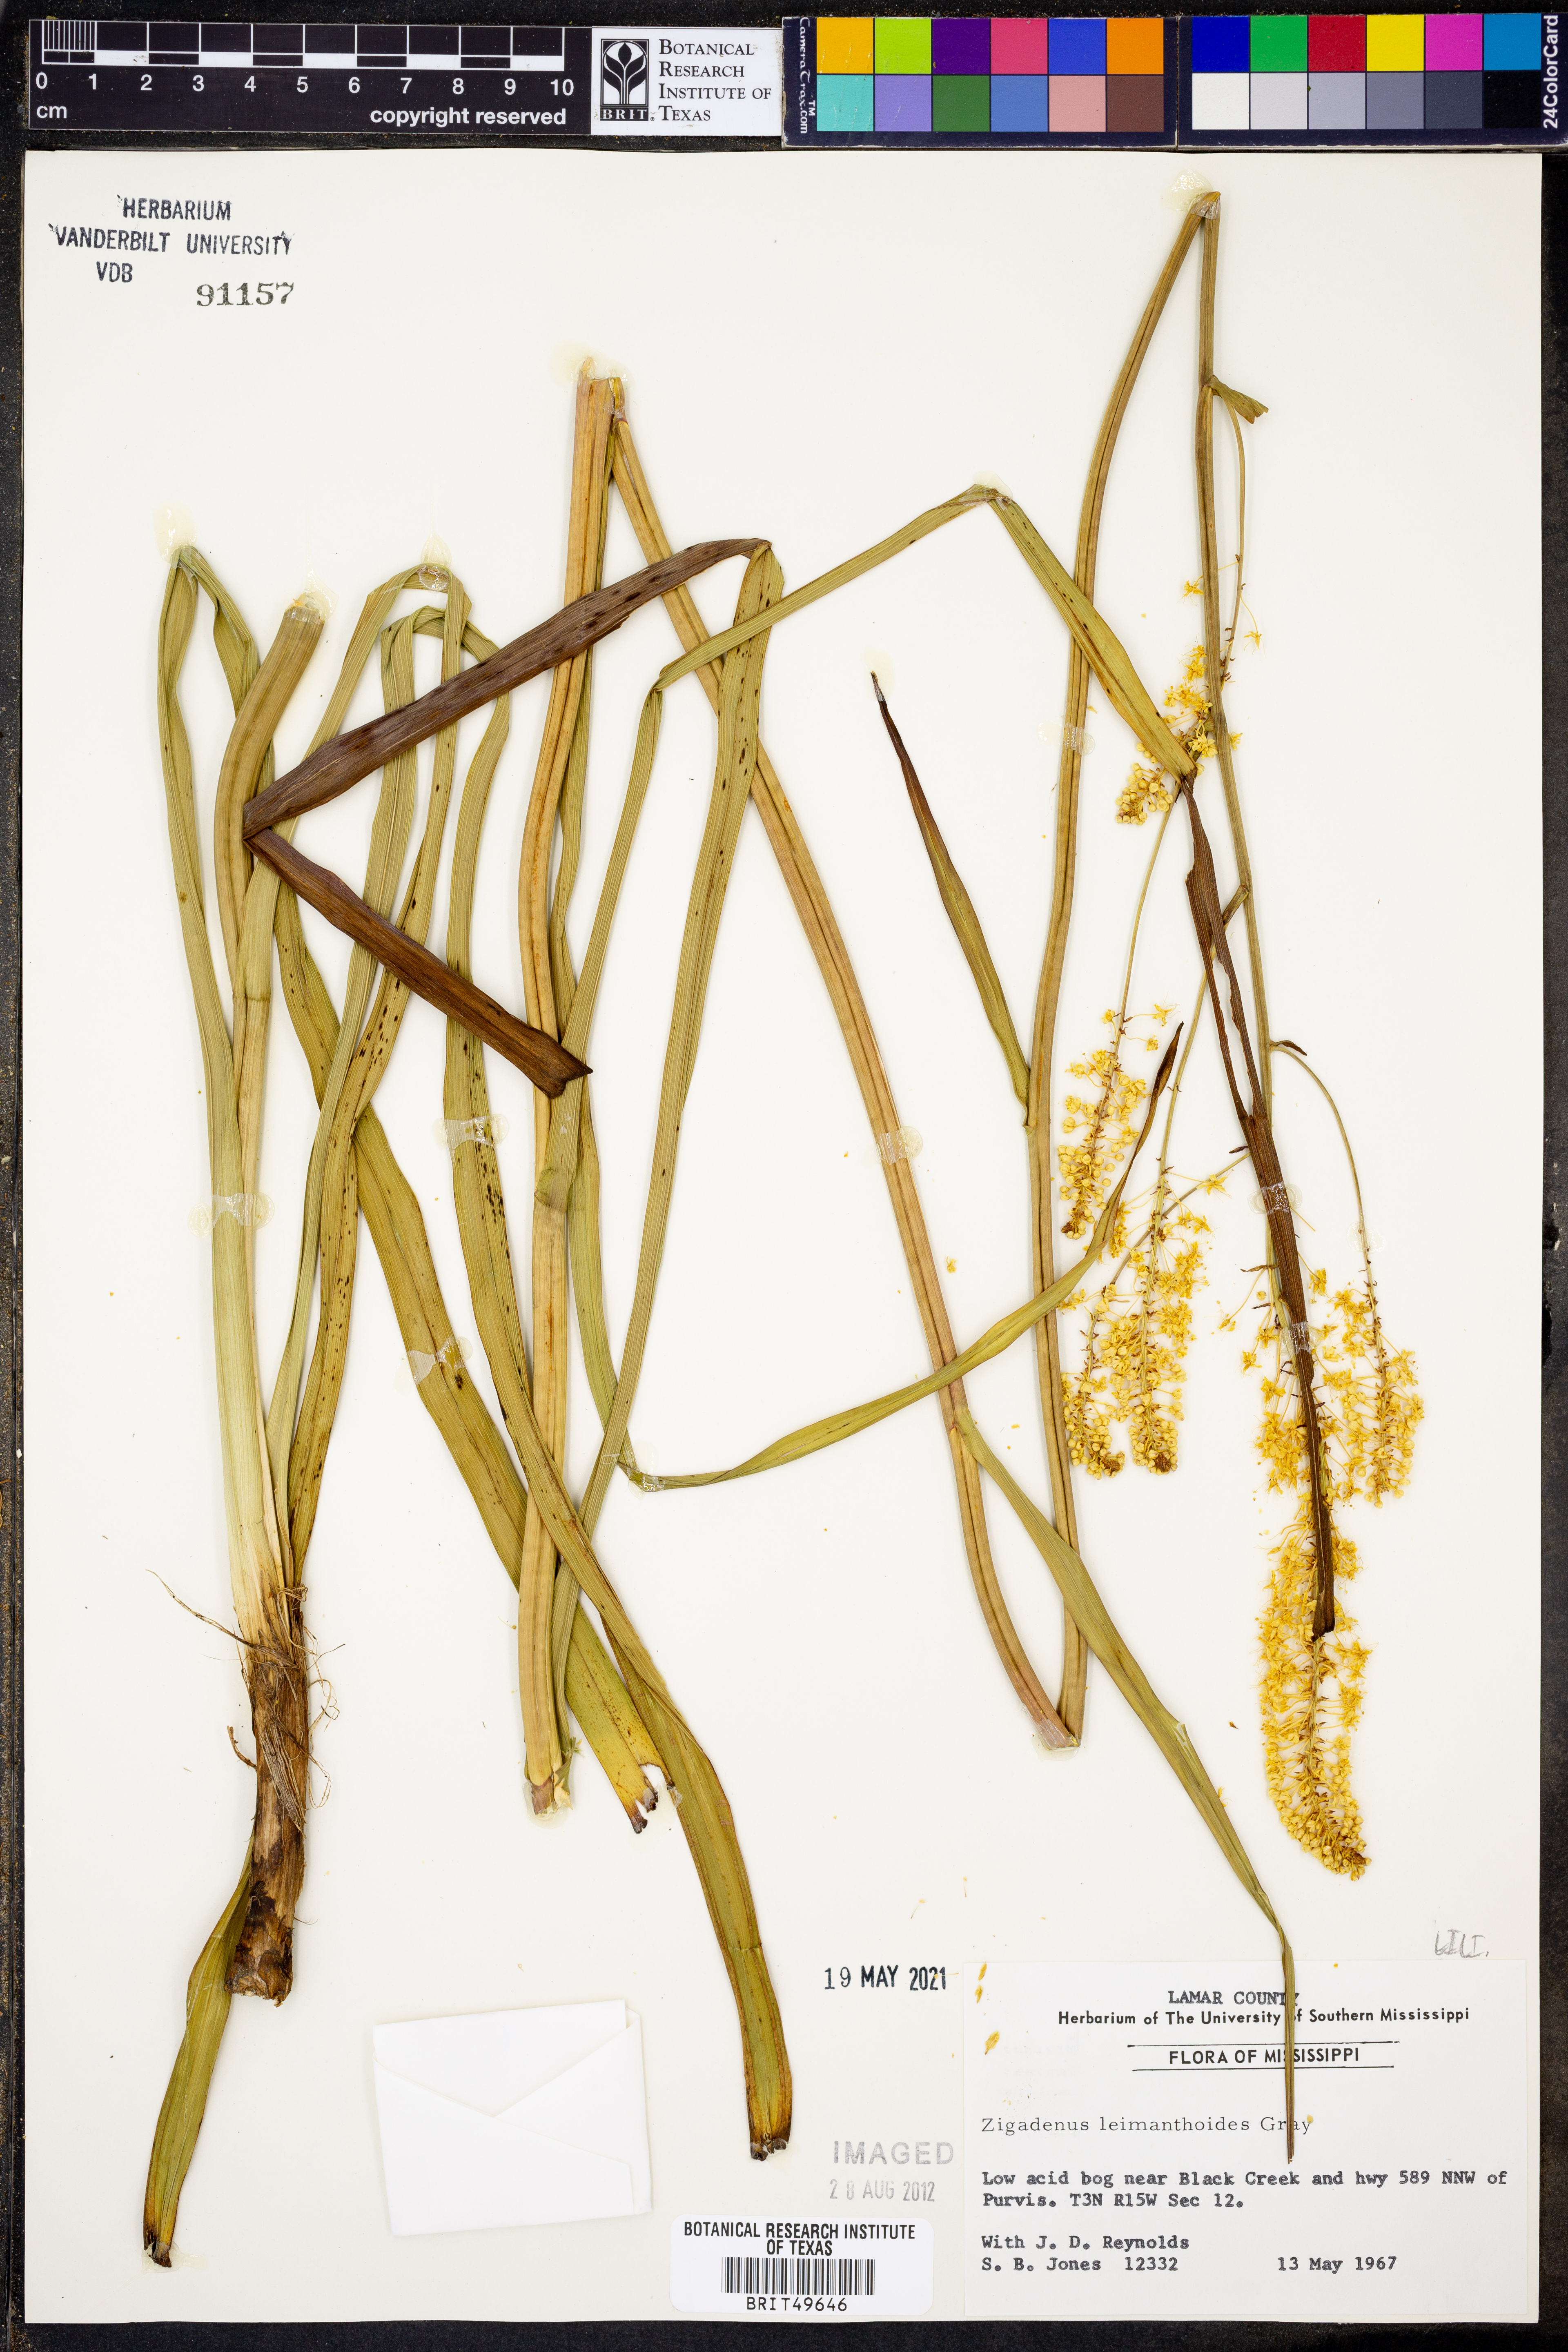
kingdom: Plantae
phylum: Tracheophyta
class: Liliopsida
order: Liliales
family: Melanthiaceae
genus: Stenanthium
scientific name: Stenanthium leimanthoides
